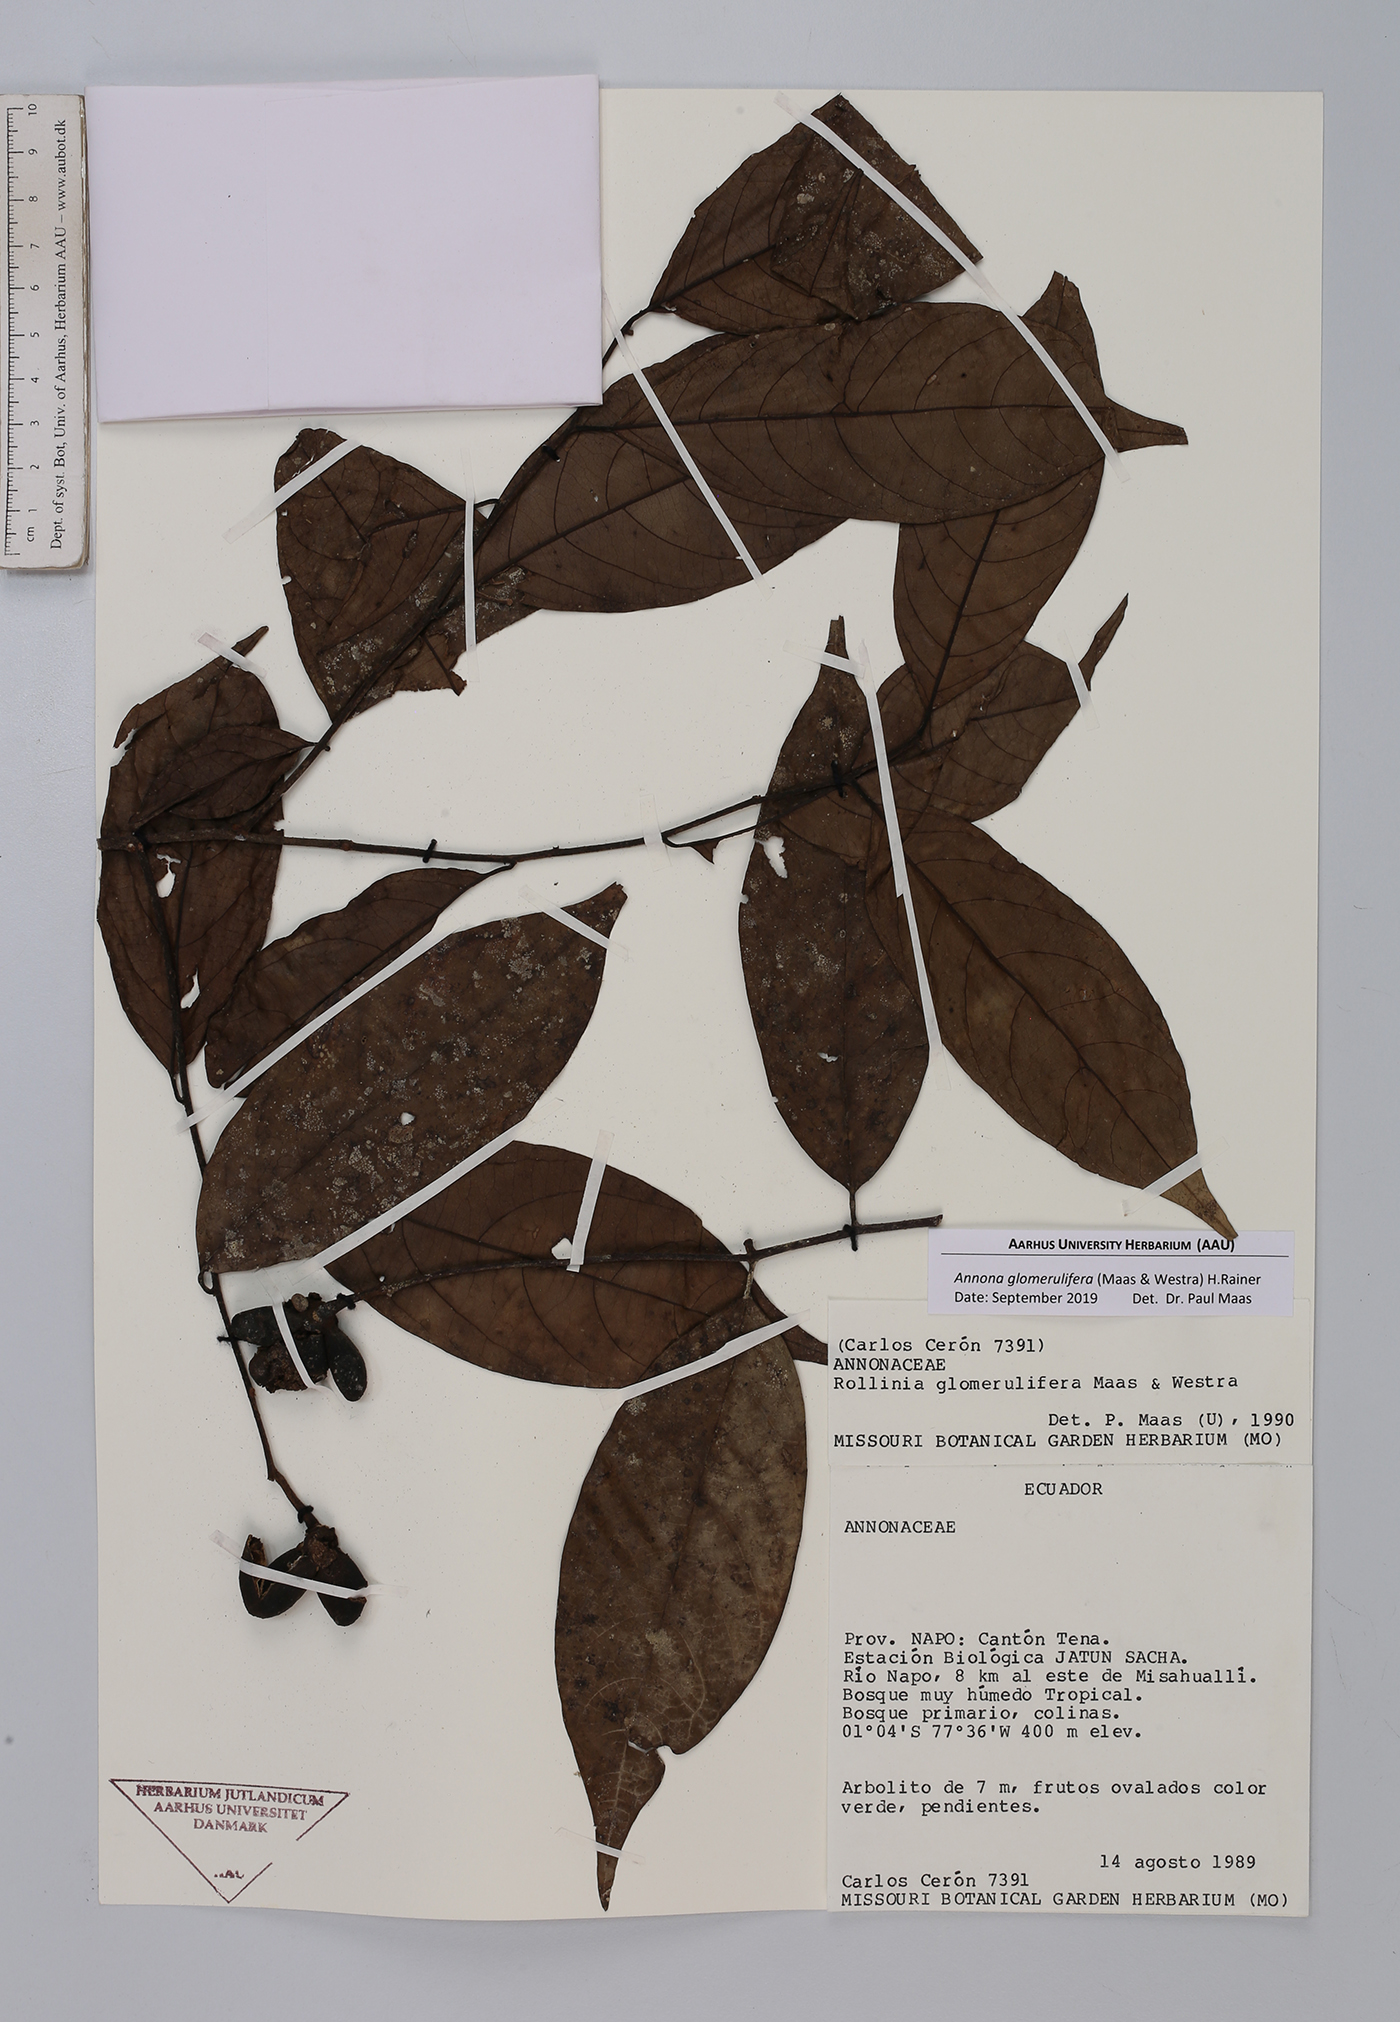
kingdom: Plantae
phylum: Tracheophyta
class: Magnoliopsida
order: Magnoliales
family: Annonaceae
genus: Annona
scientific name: Annona glomerulifera
